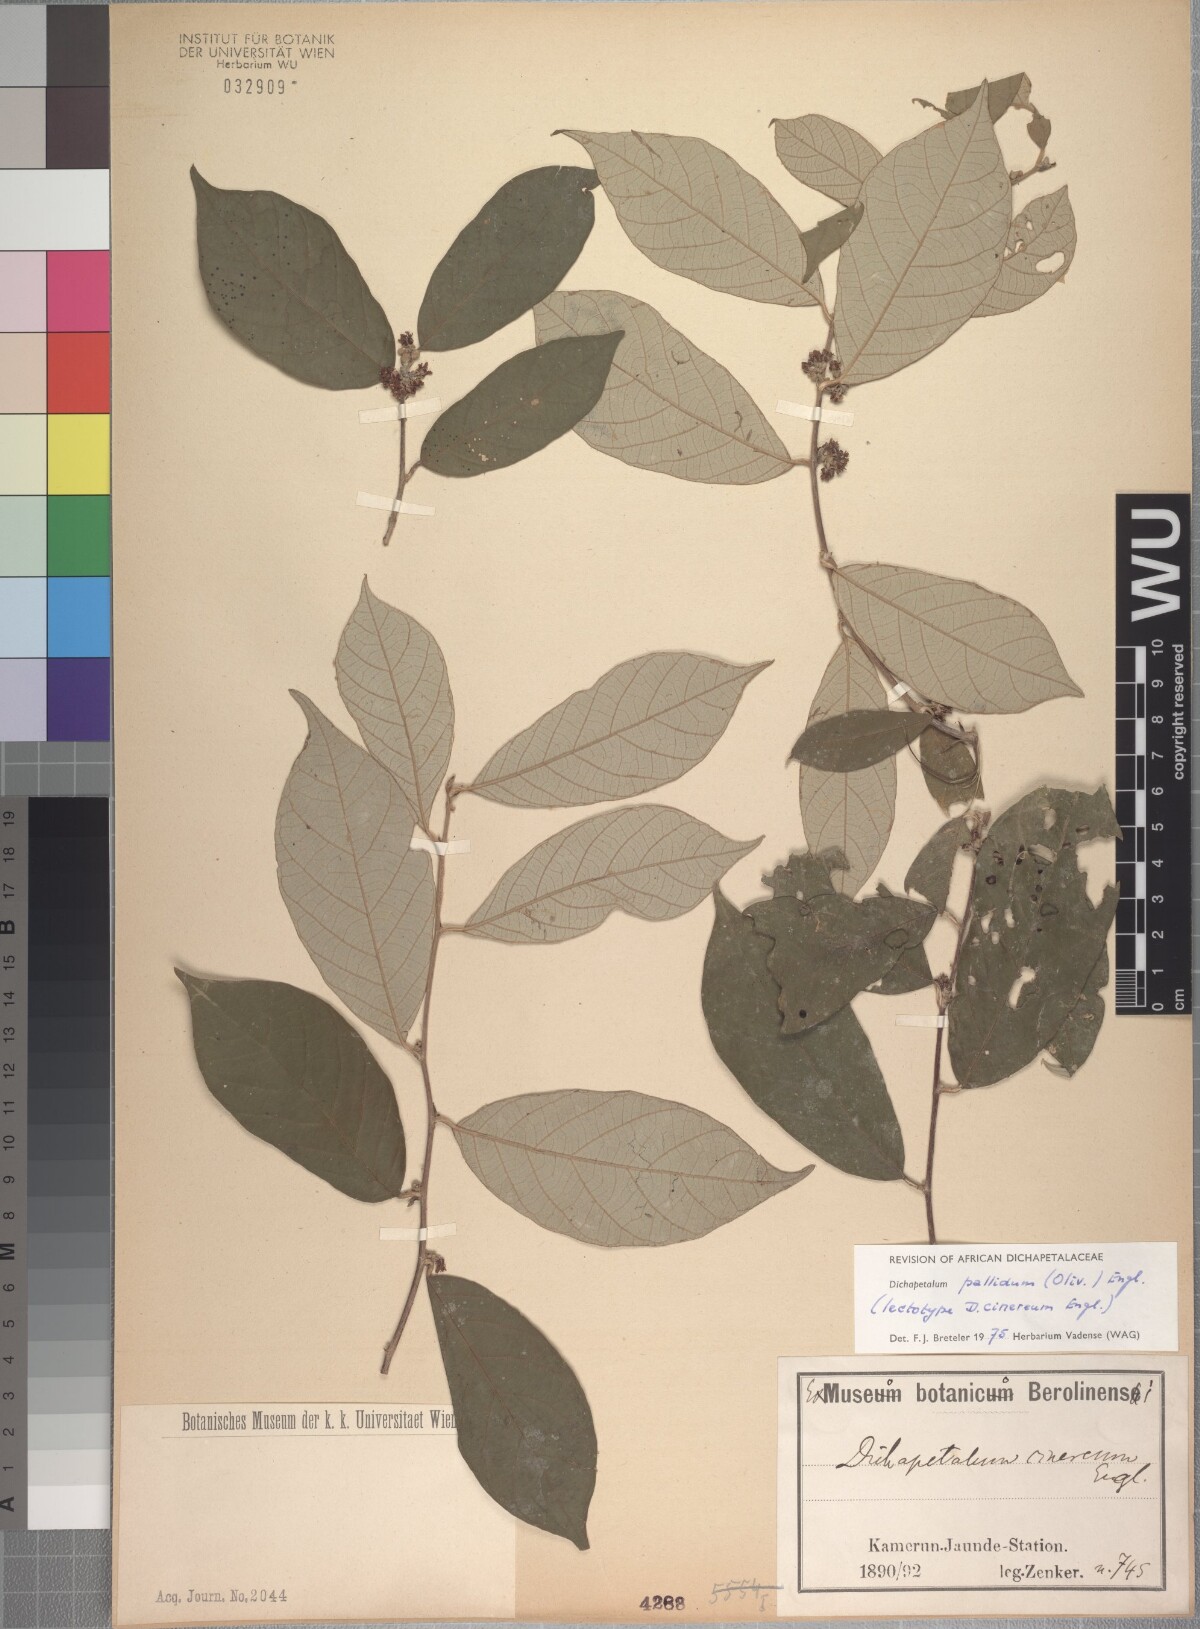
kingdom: Plantae
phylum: Tracheophyta
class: Magnoliopsida
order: Malpighiales
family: Dichapetalaceae
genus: Dichapetalum
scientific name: Dichapetalum pallidum
